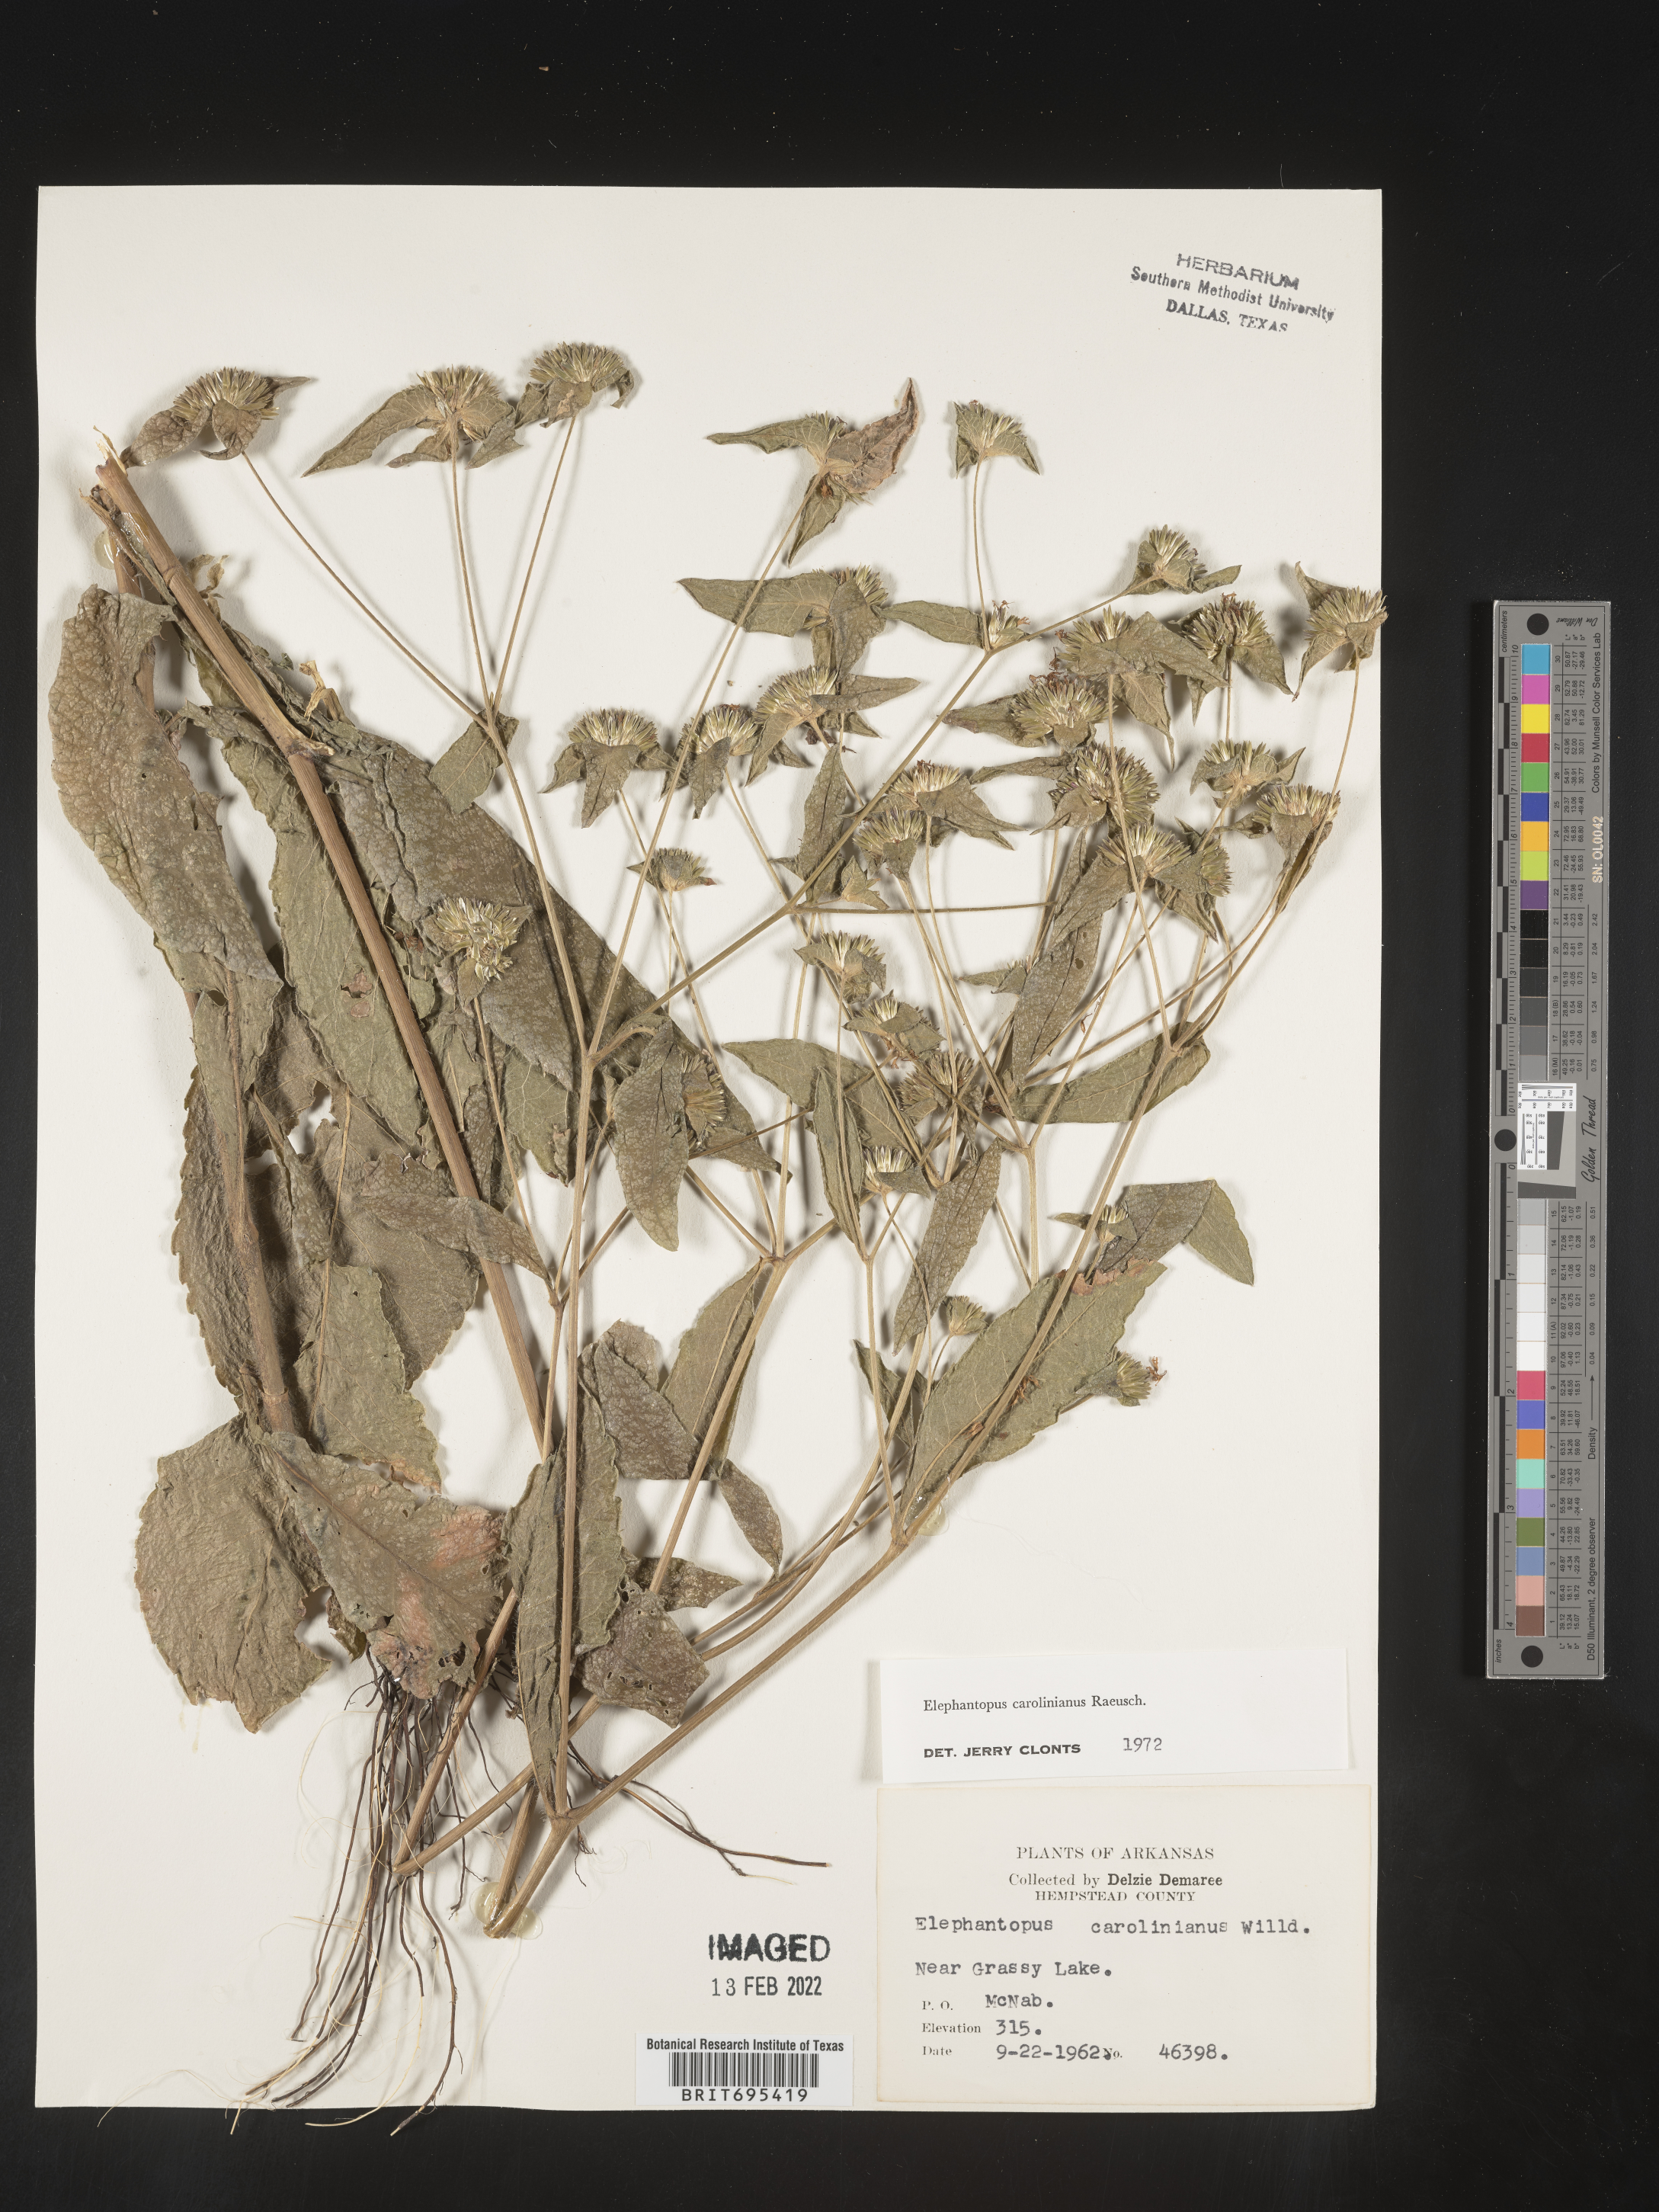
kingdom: Plantae
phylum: Tracheophyta
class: Magnoliopsida
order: Asterales
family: Asteraceae
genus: Elephantopus
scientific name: Elephantopus carolinianus
